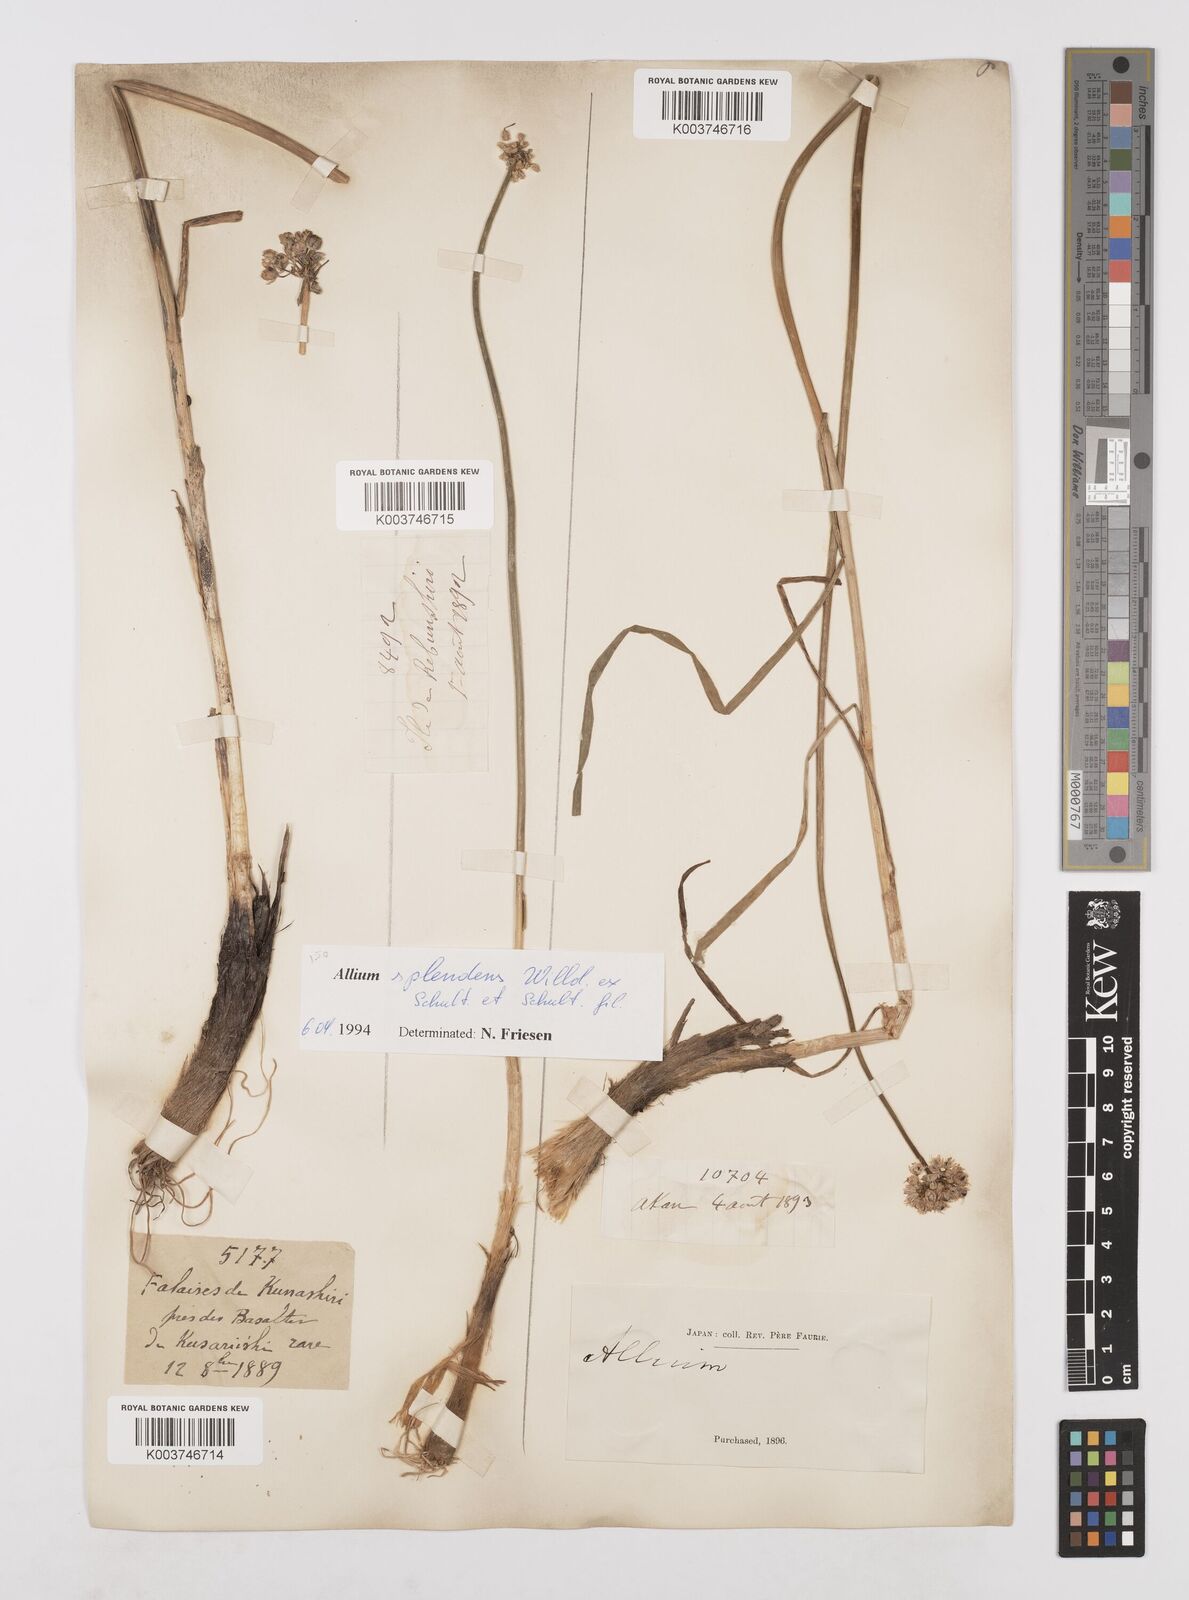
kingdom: Plantae
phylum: Tracheophyta
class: Liliopsida
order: Asparagales
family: Amaryllidaceae
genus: Allium
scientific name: Allium splendens
